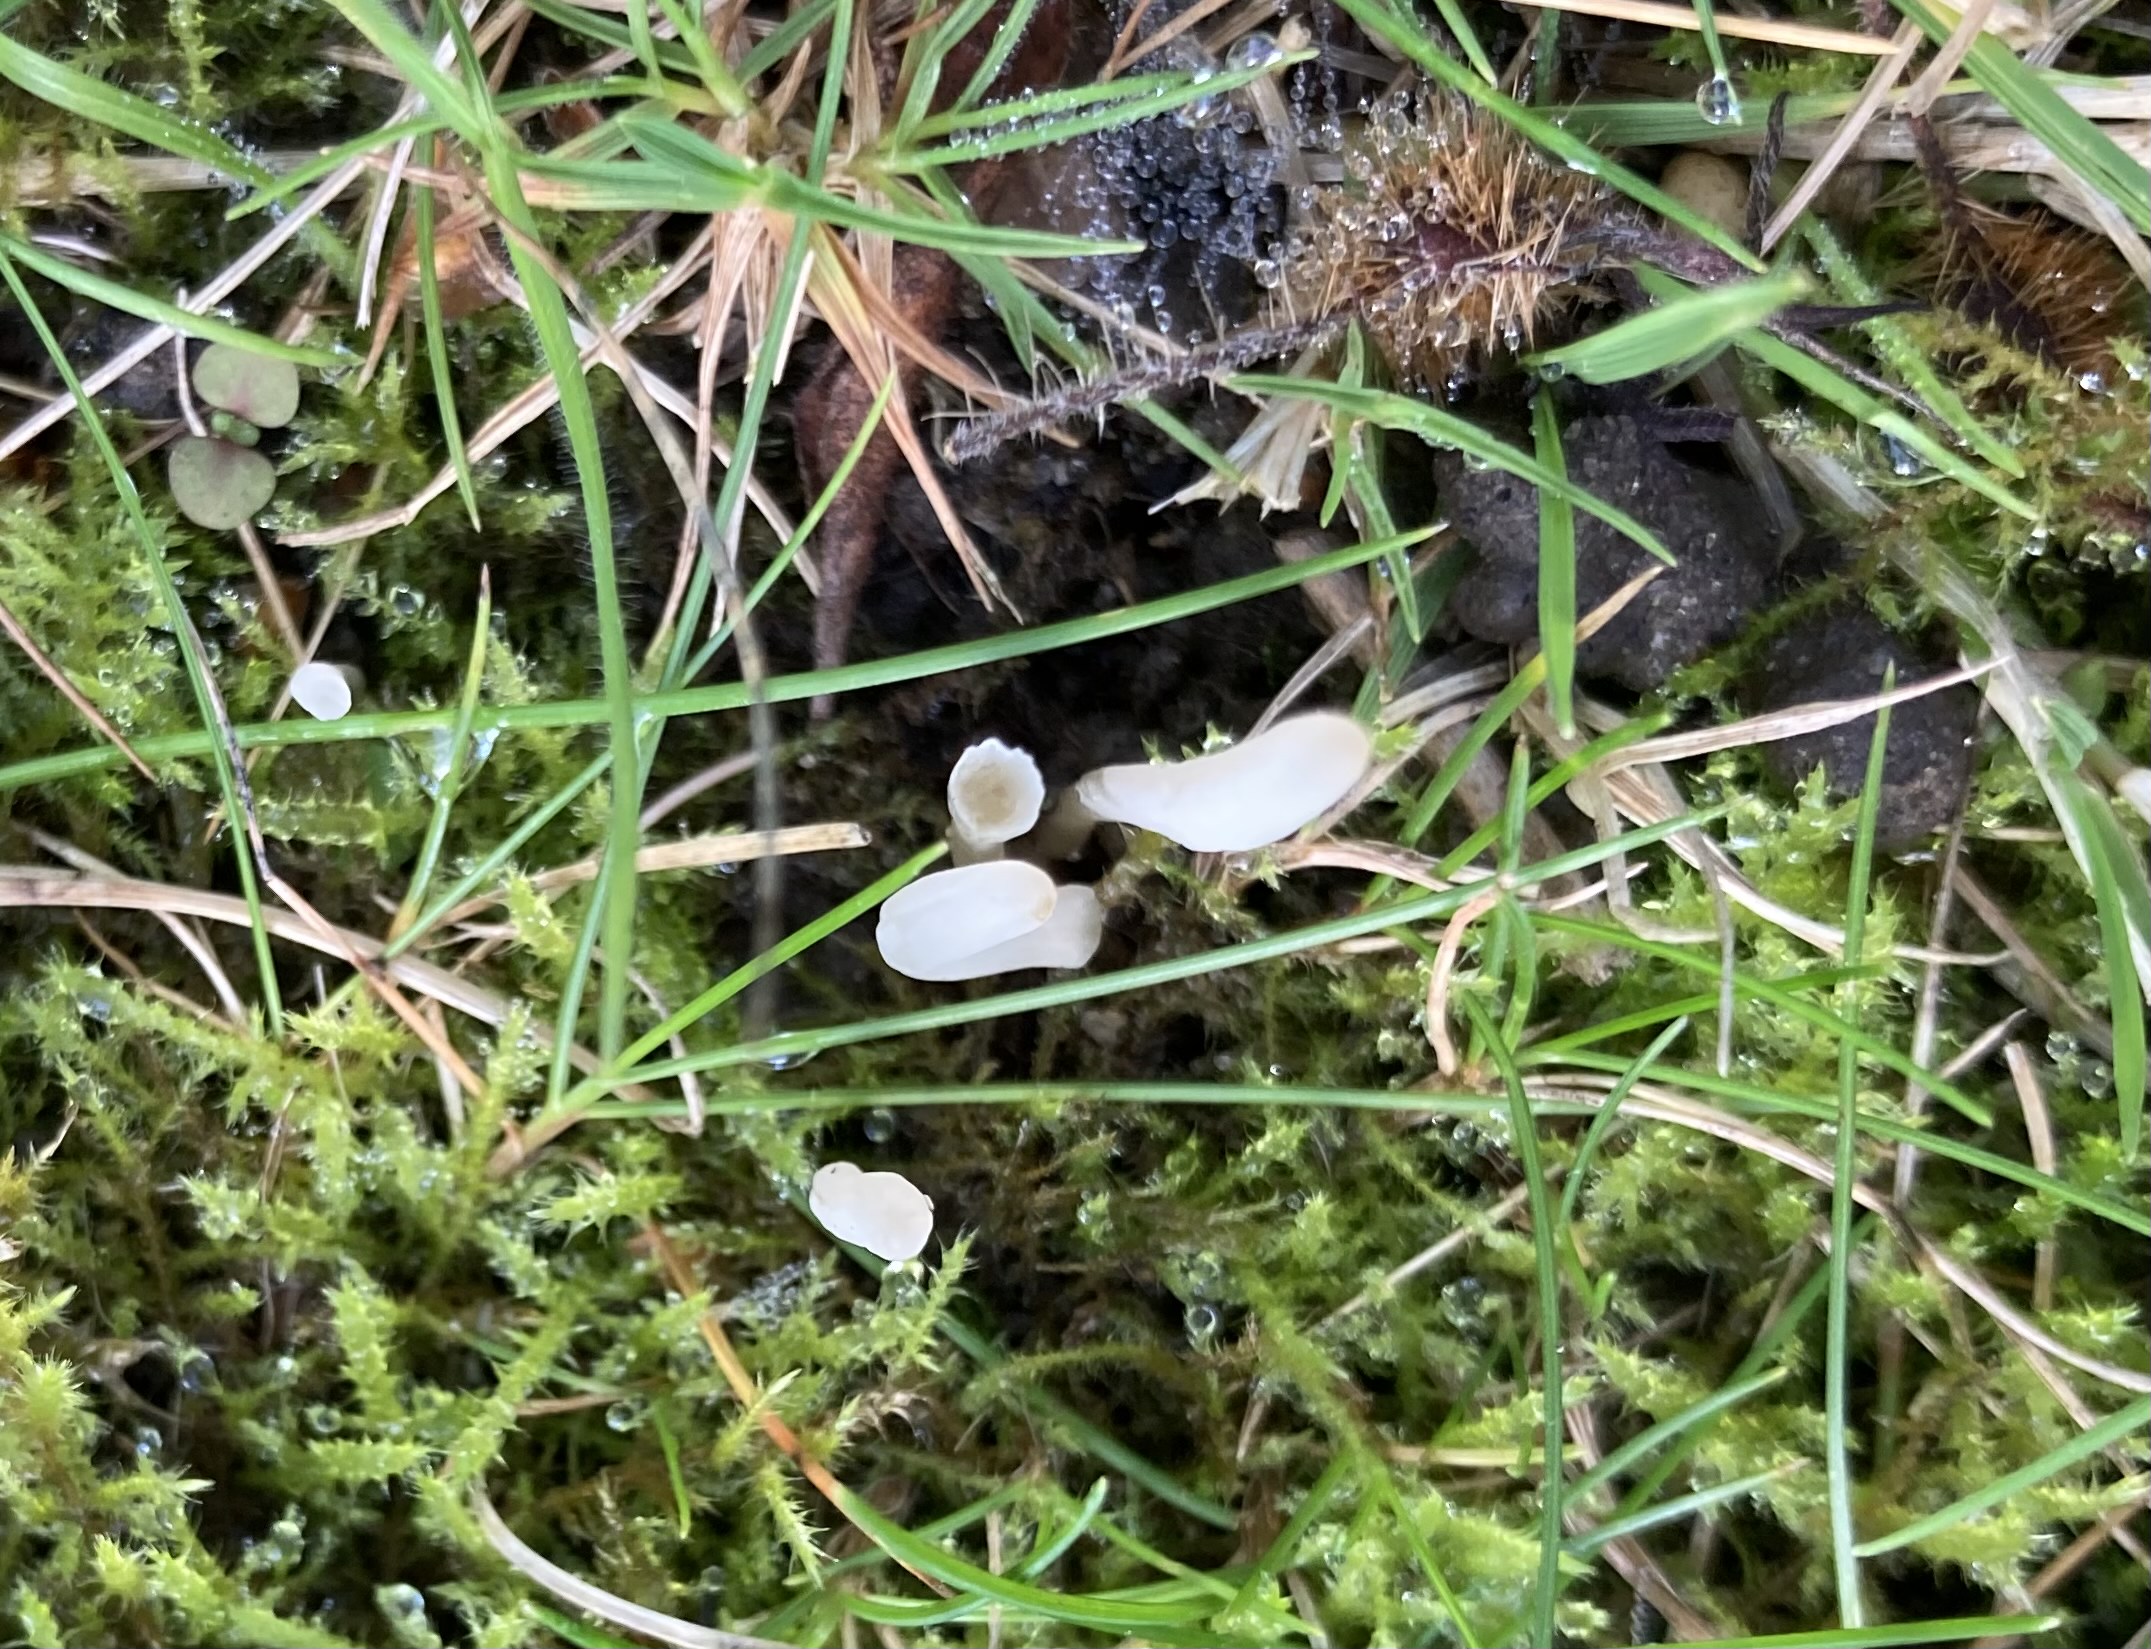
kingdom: Fungi
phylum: Basidiomycota
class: Agaricomycetes
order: Agaricales
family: Clavariaceae
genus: Clavaria
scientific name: Clavaria
